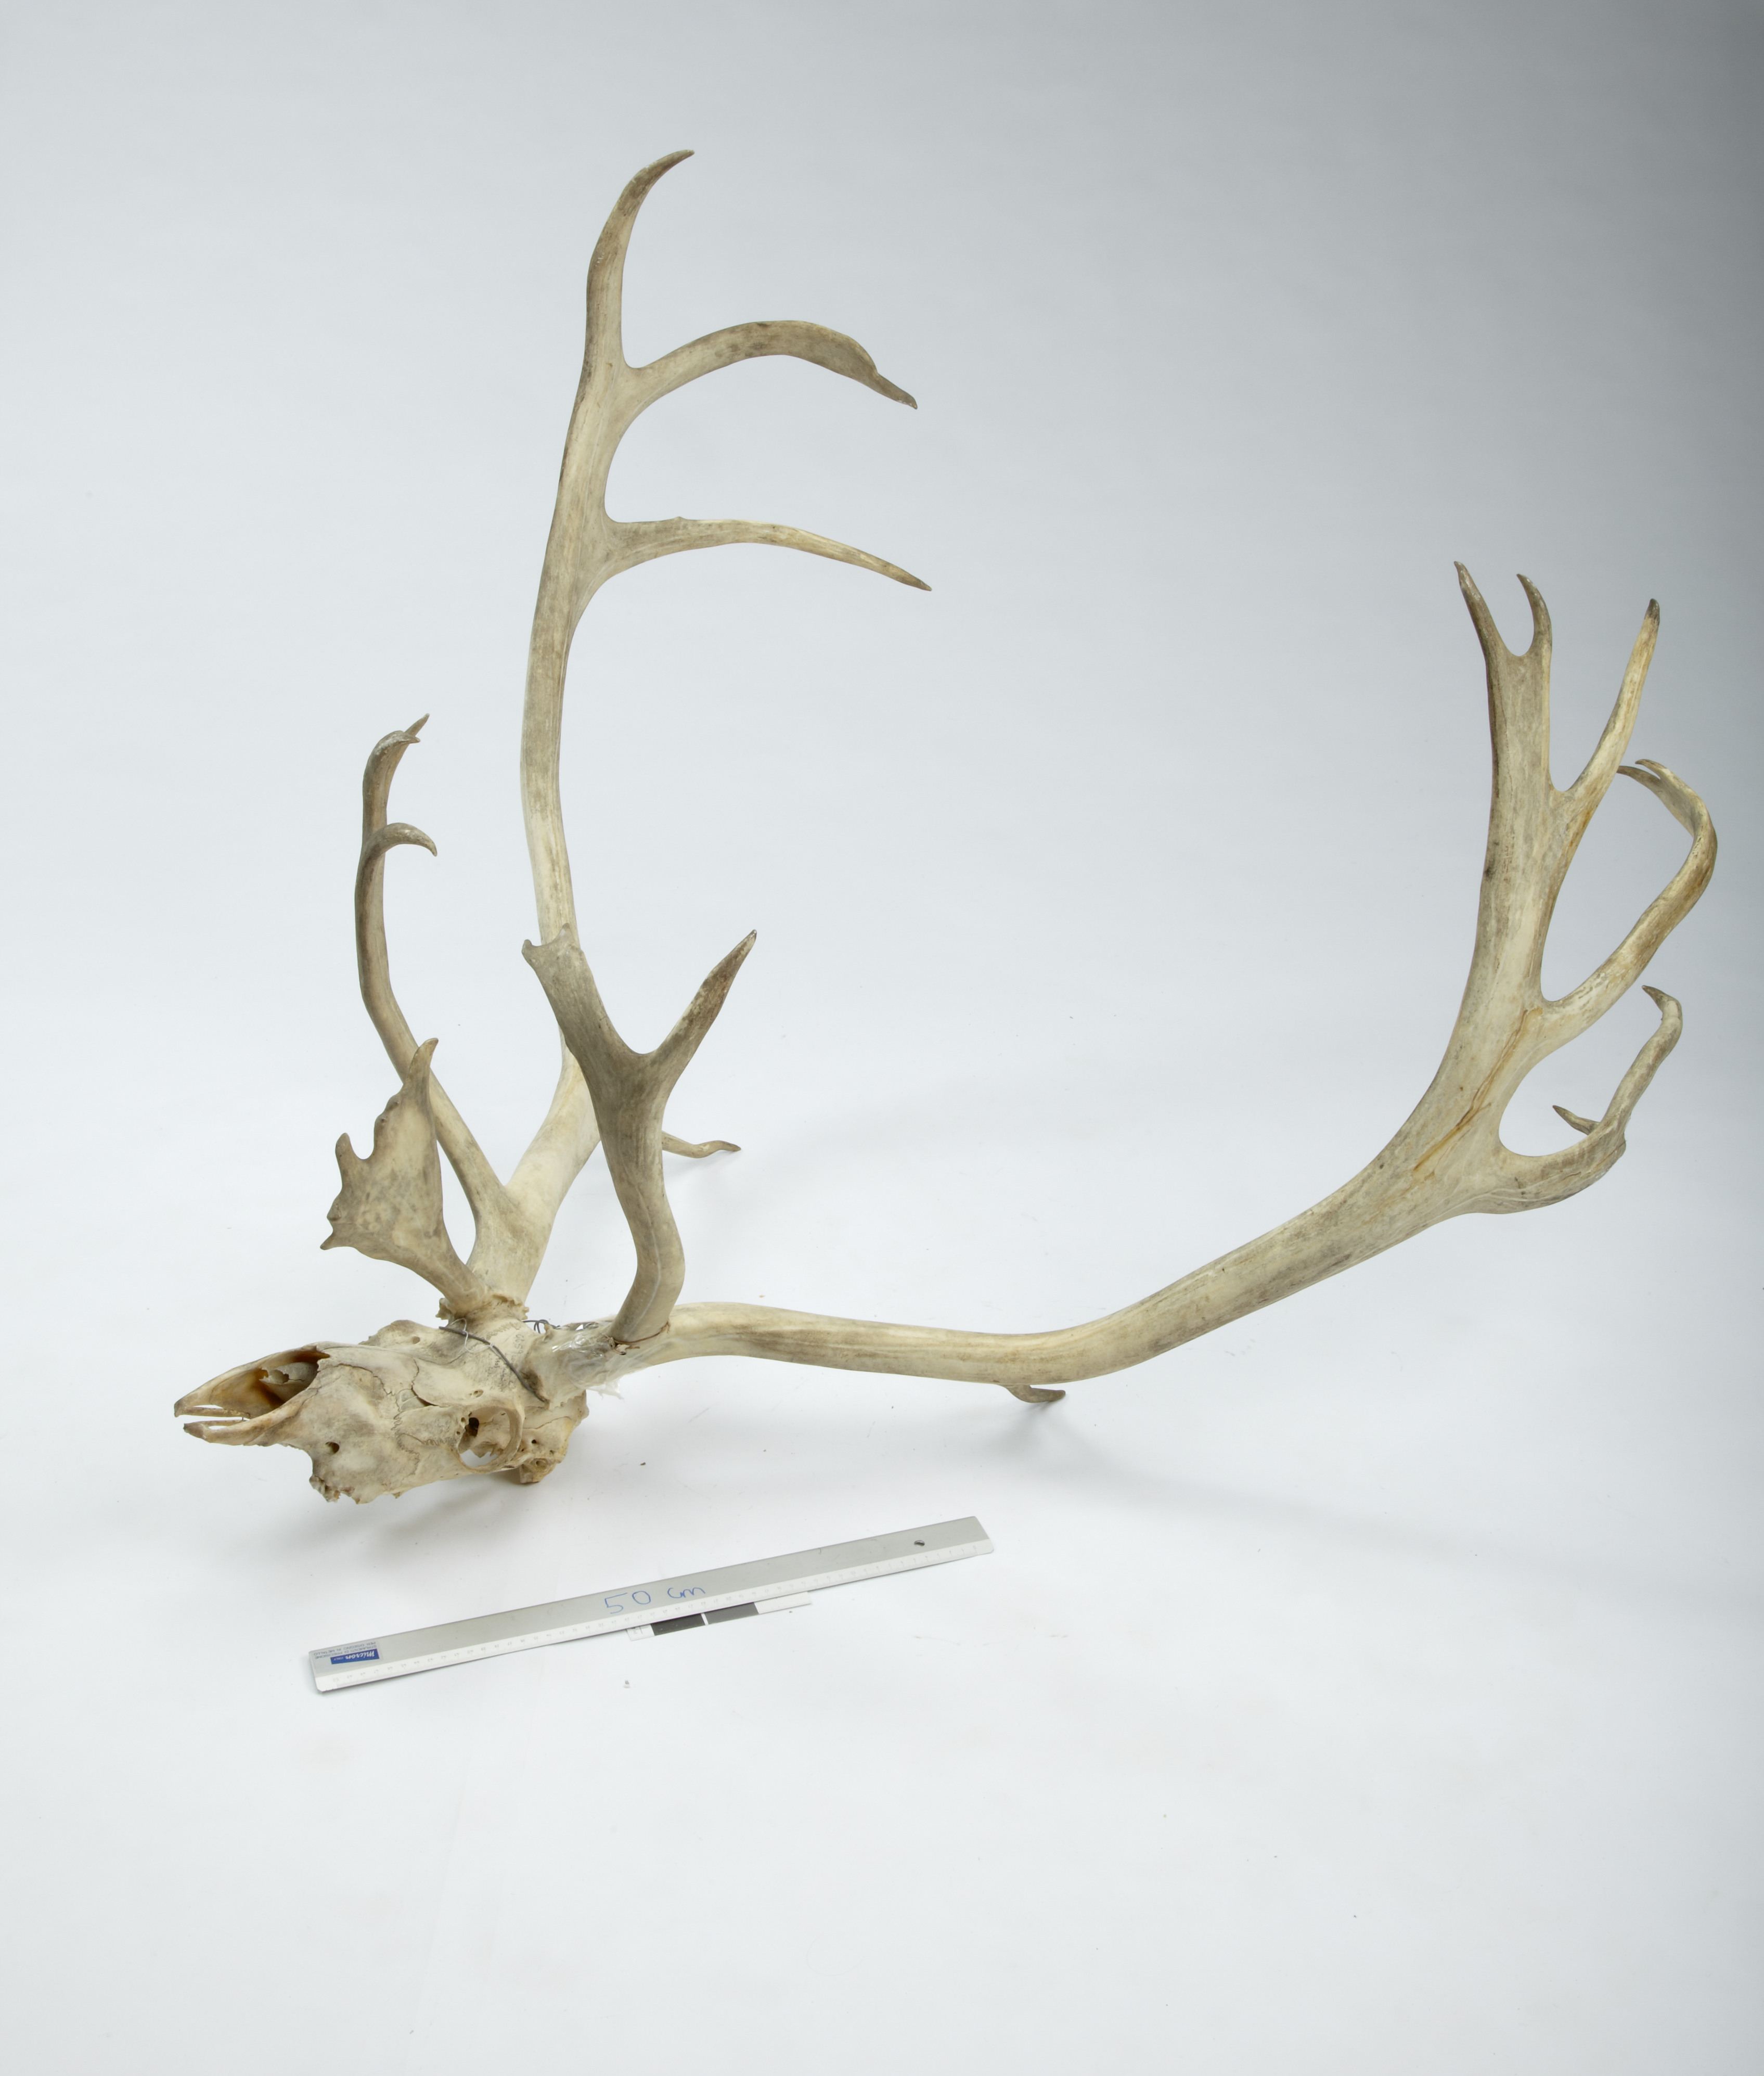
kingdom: Animalia
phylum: Chordata
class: Mammalia
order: Artiodactyla
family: Cervidae
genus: Rangifer
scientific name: Rangifer tarandus
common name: Reindeer
